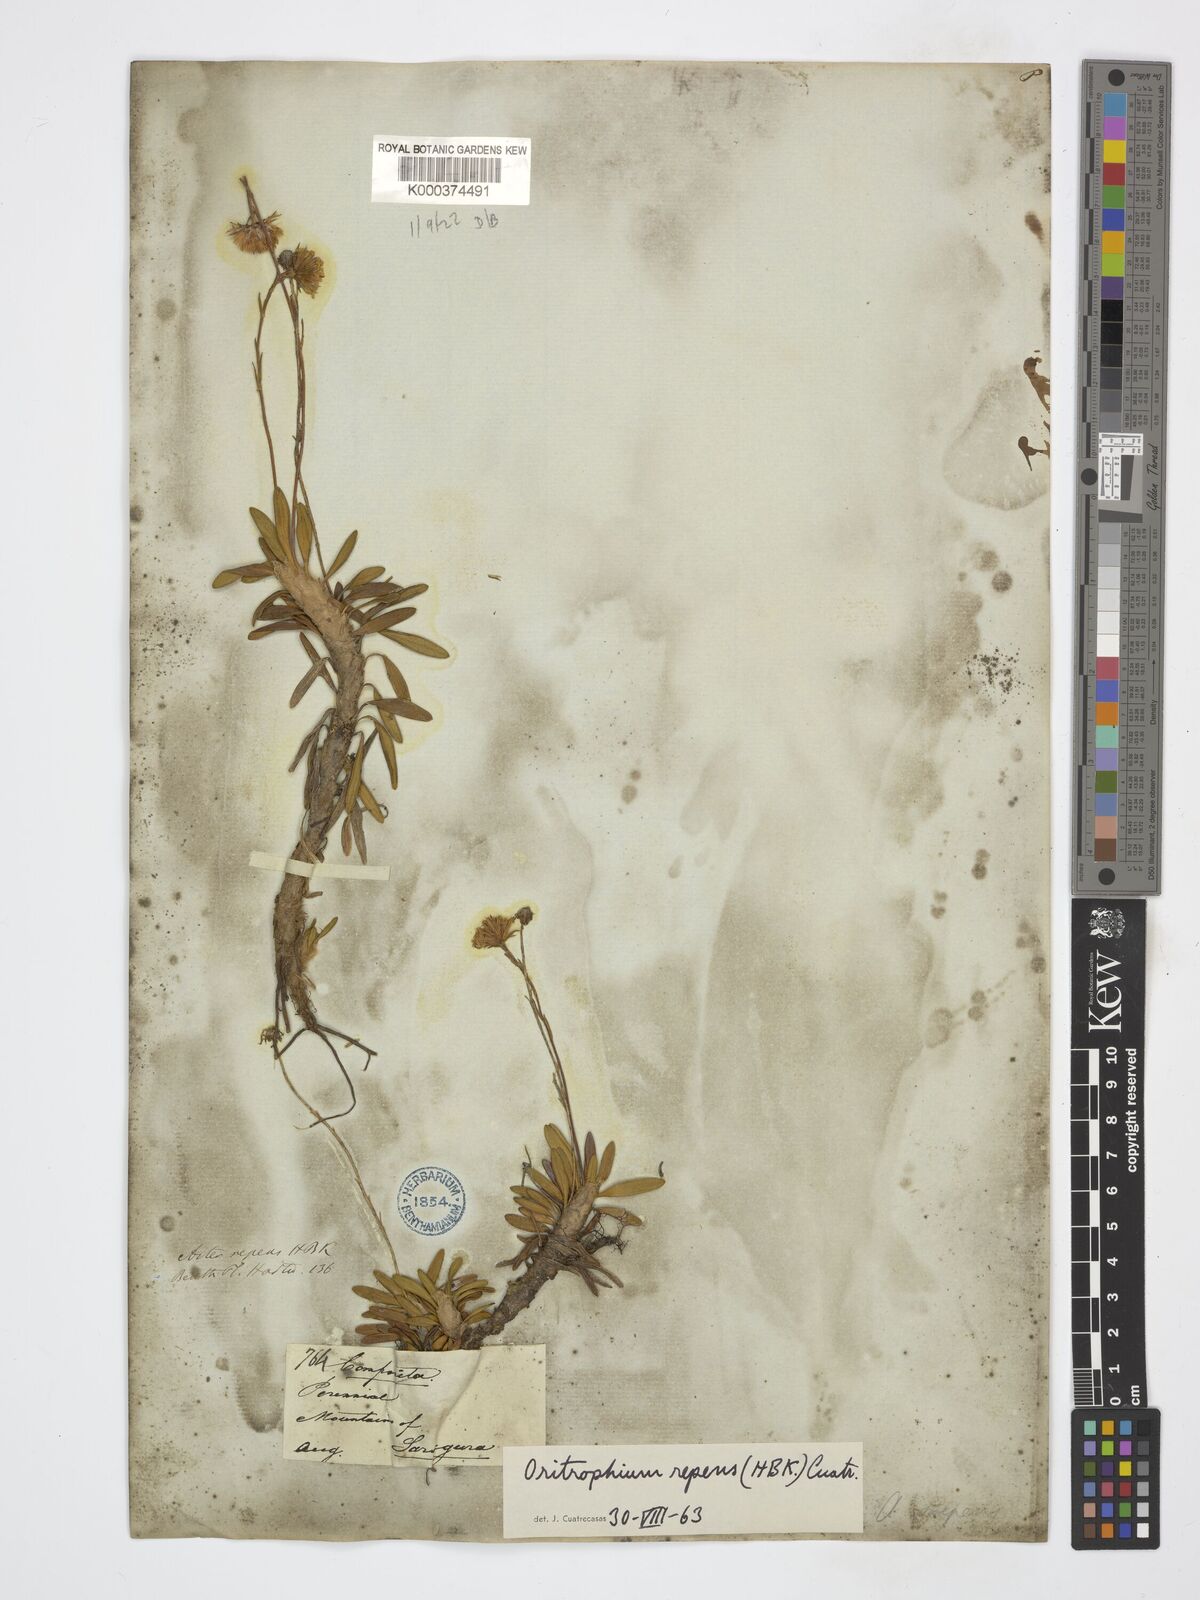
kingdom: Plantae
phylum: Tracheophyta
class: Magnoliopsida
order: Asterales
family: Asteraceae
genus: Oritrophium
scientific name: Oritrophium repens
